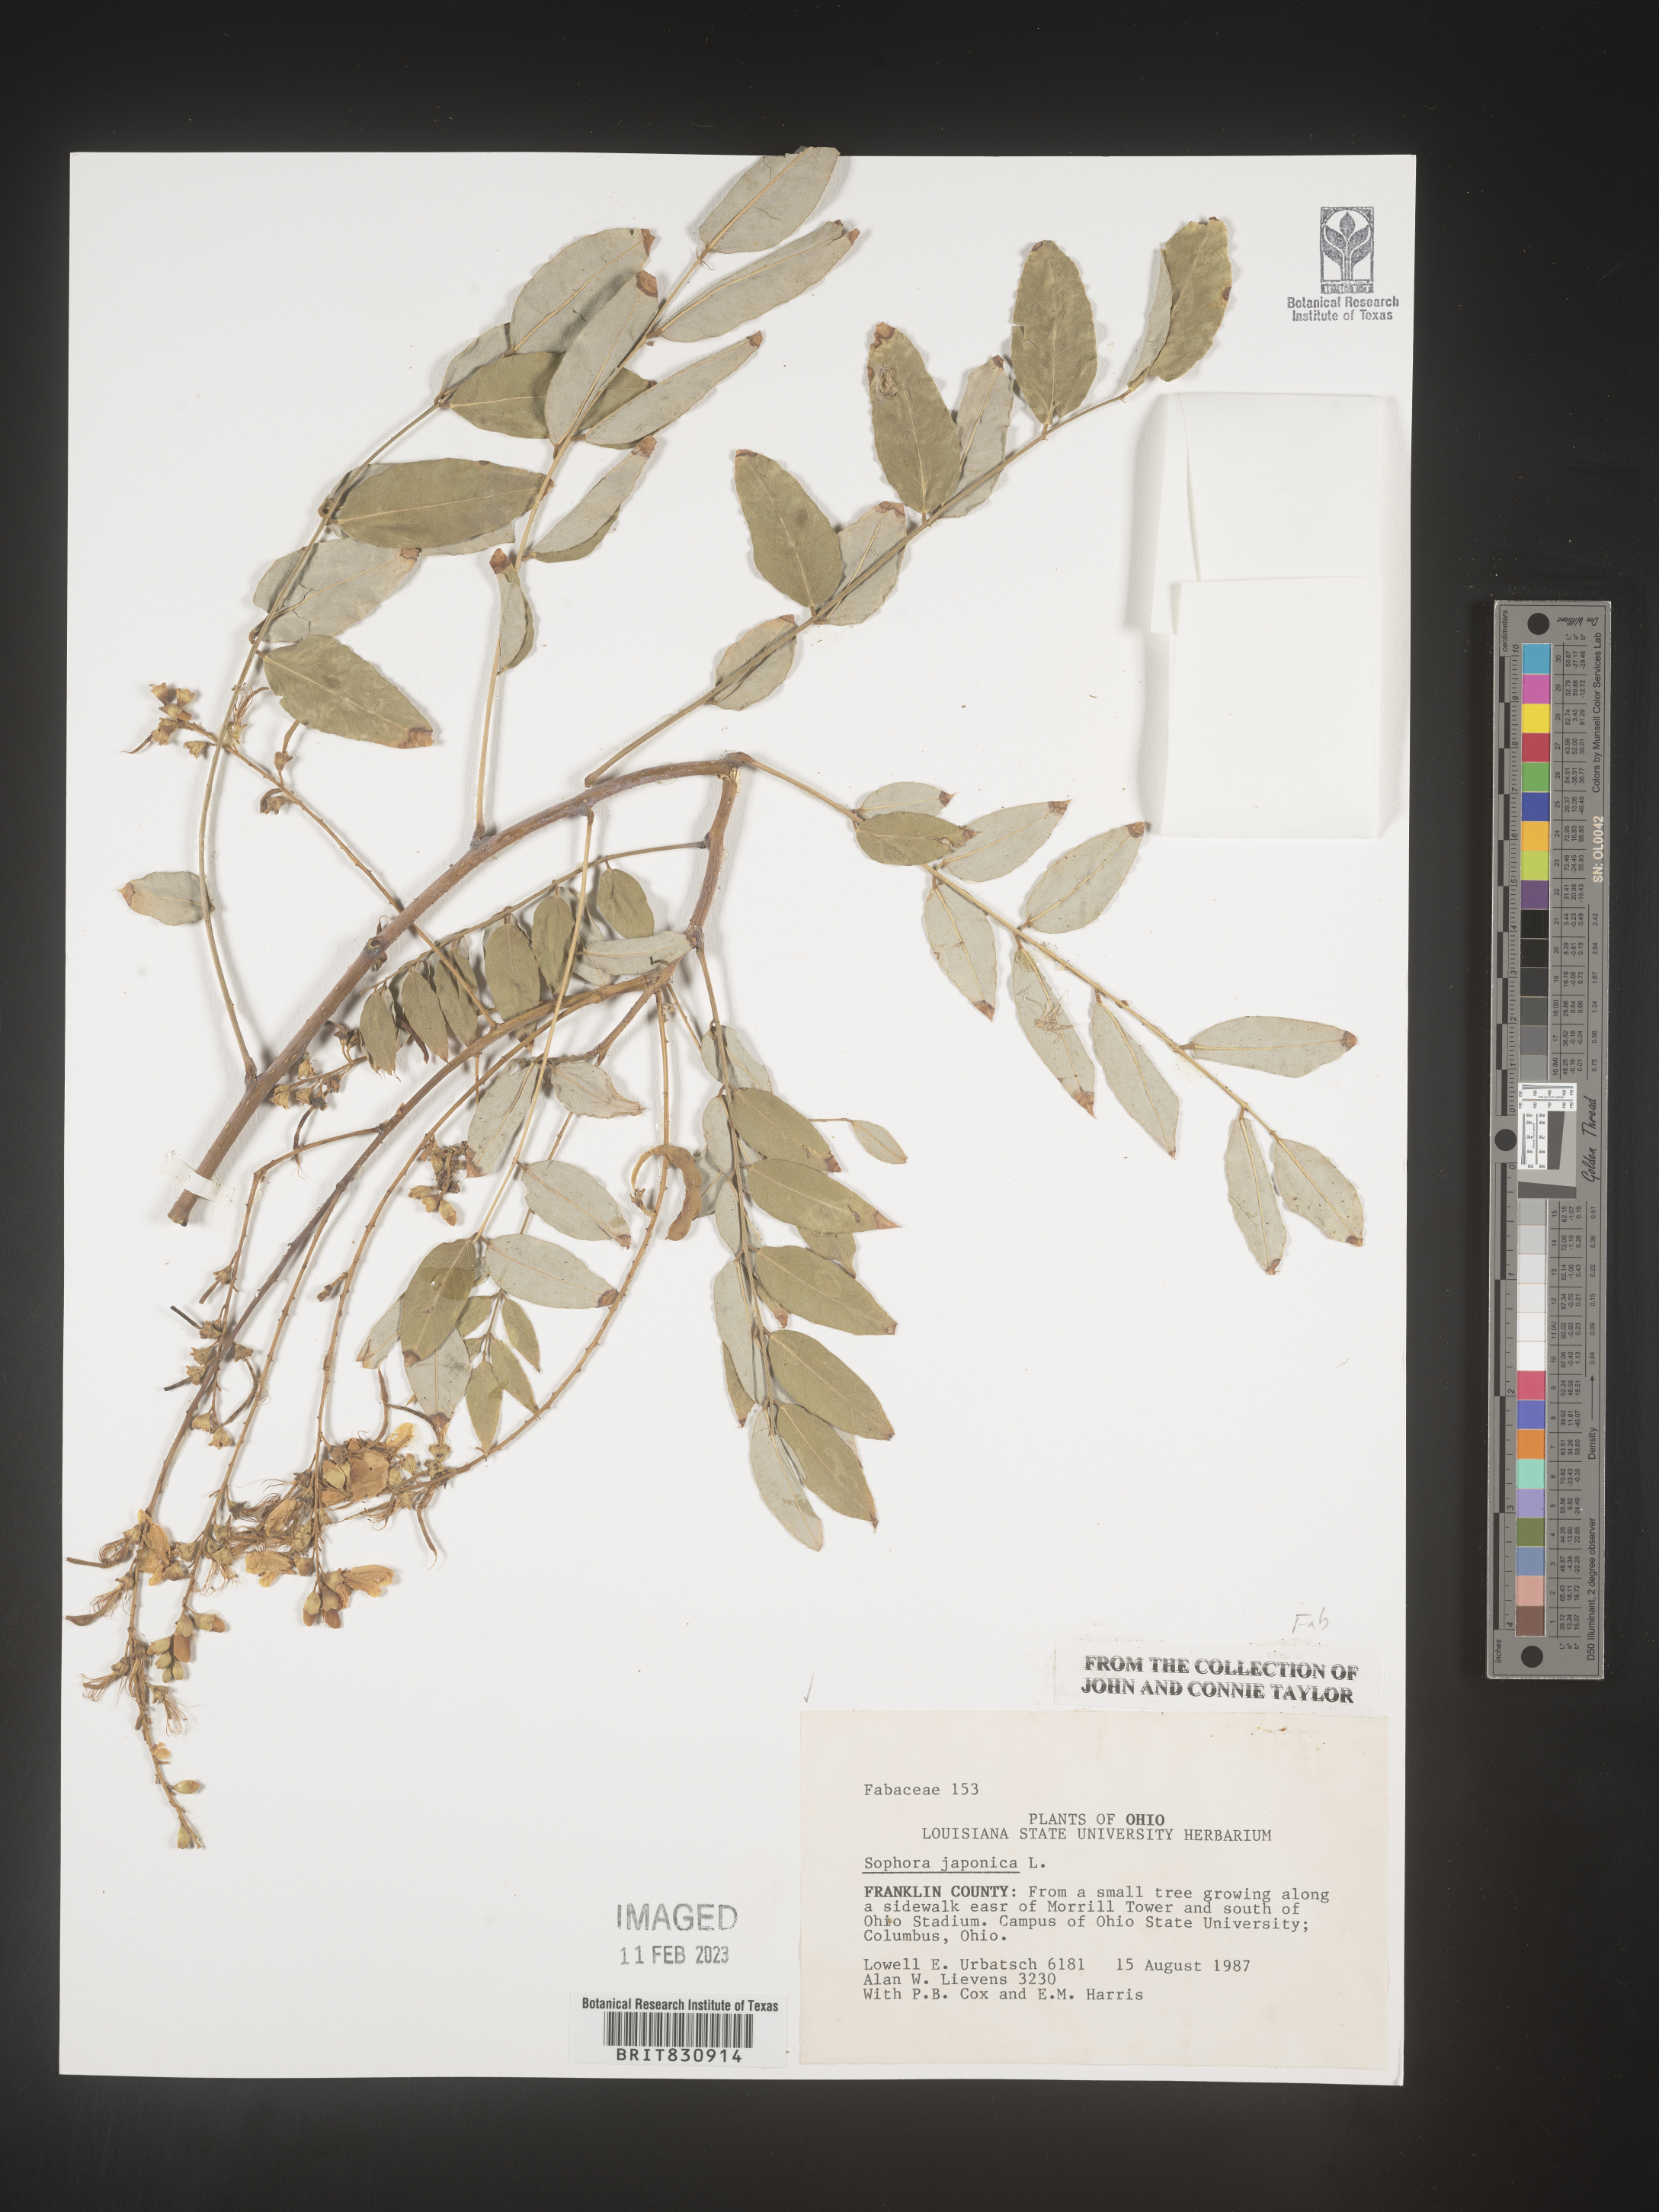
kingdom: Plantae
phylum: Tracheophyta
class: Magnoliopsida
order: Fabales
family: Fabaceae
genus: Sophora
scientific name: Sophora
